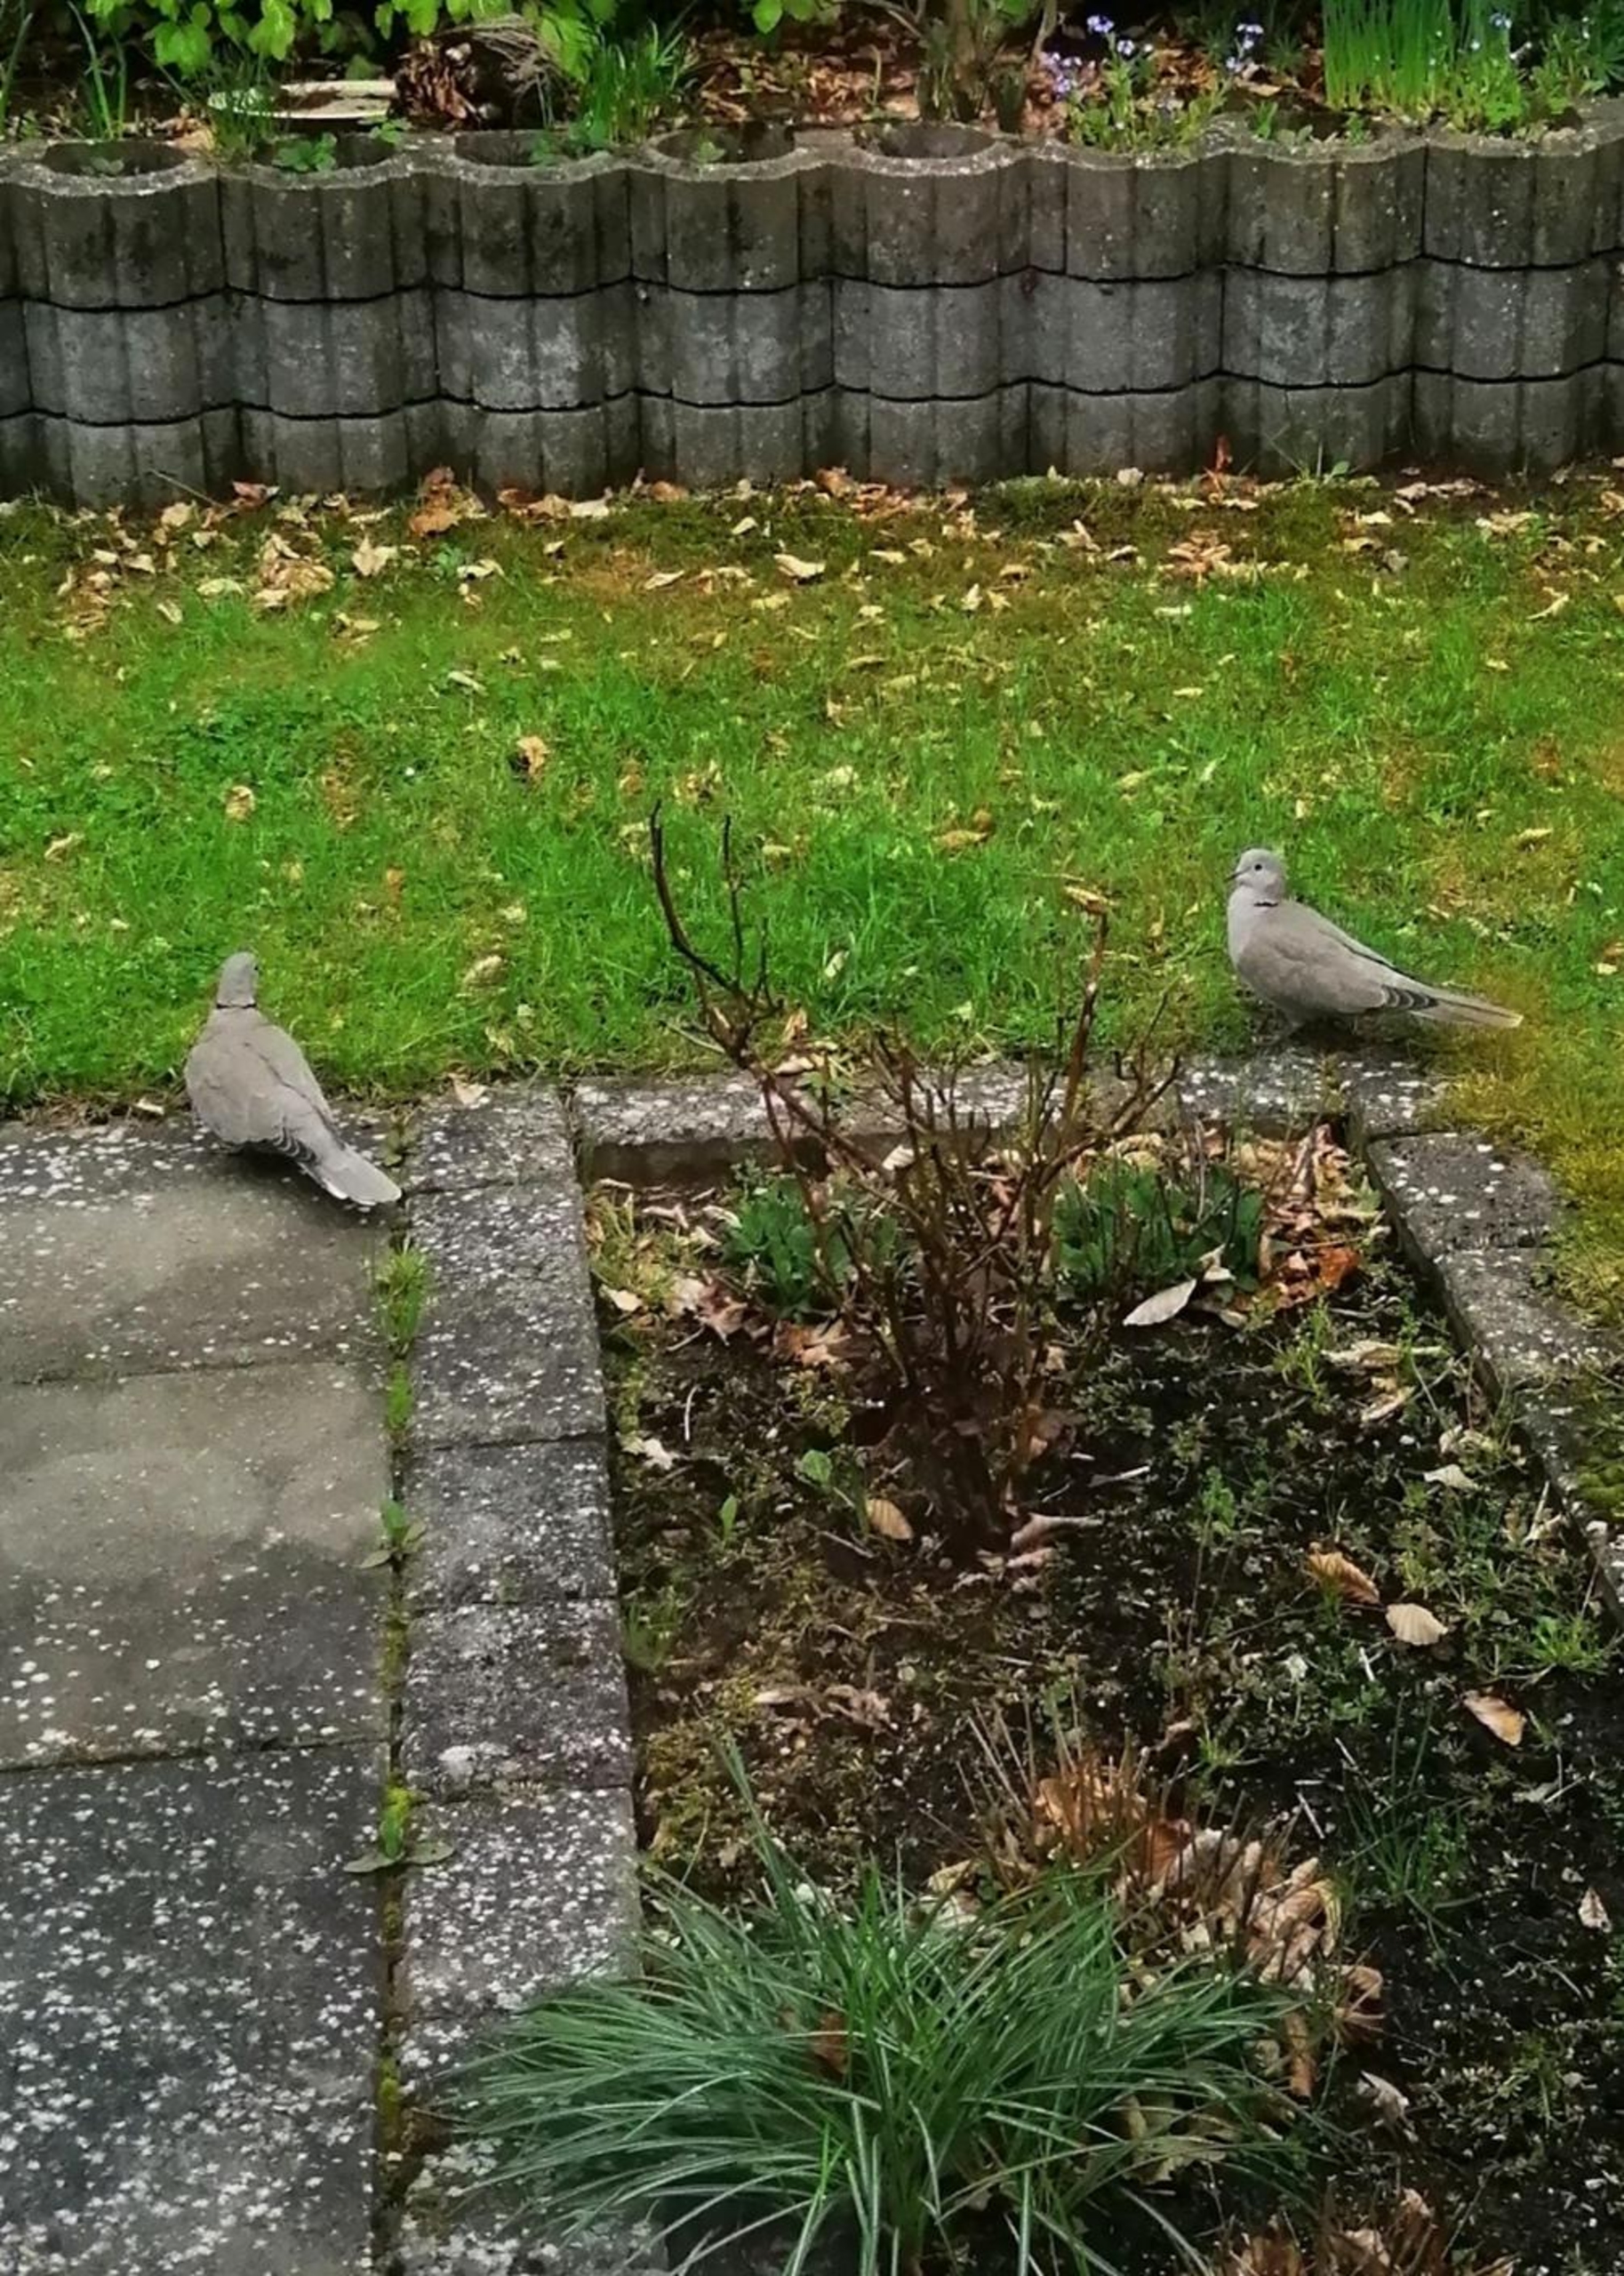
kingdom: Animalia
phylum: Chordata
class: Aves
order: Columbiformes
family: Columbidae
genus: Streptopelia
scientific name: Streptopelia decaocto
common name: Tyrkerdue
